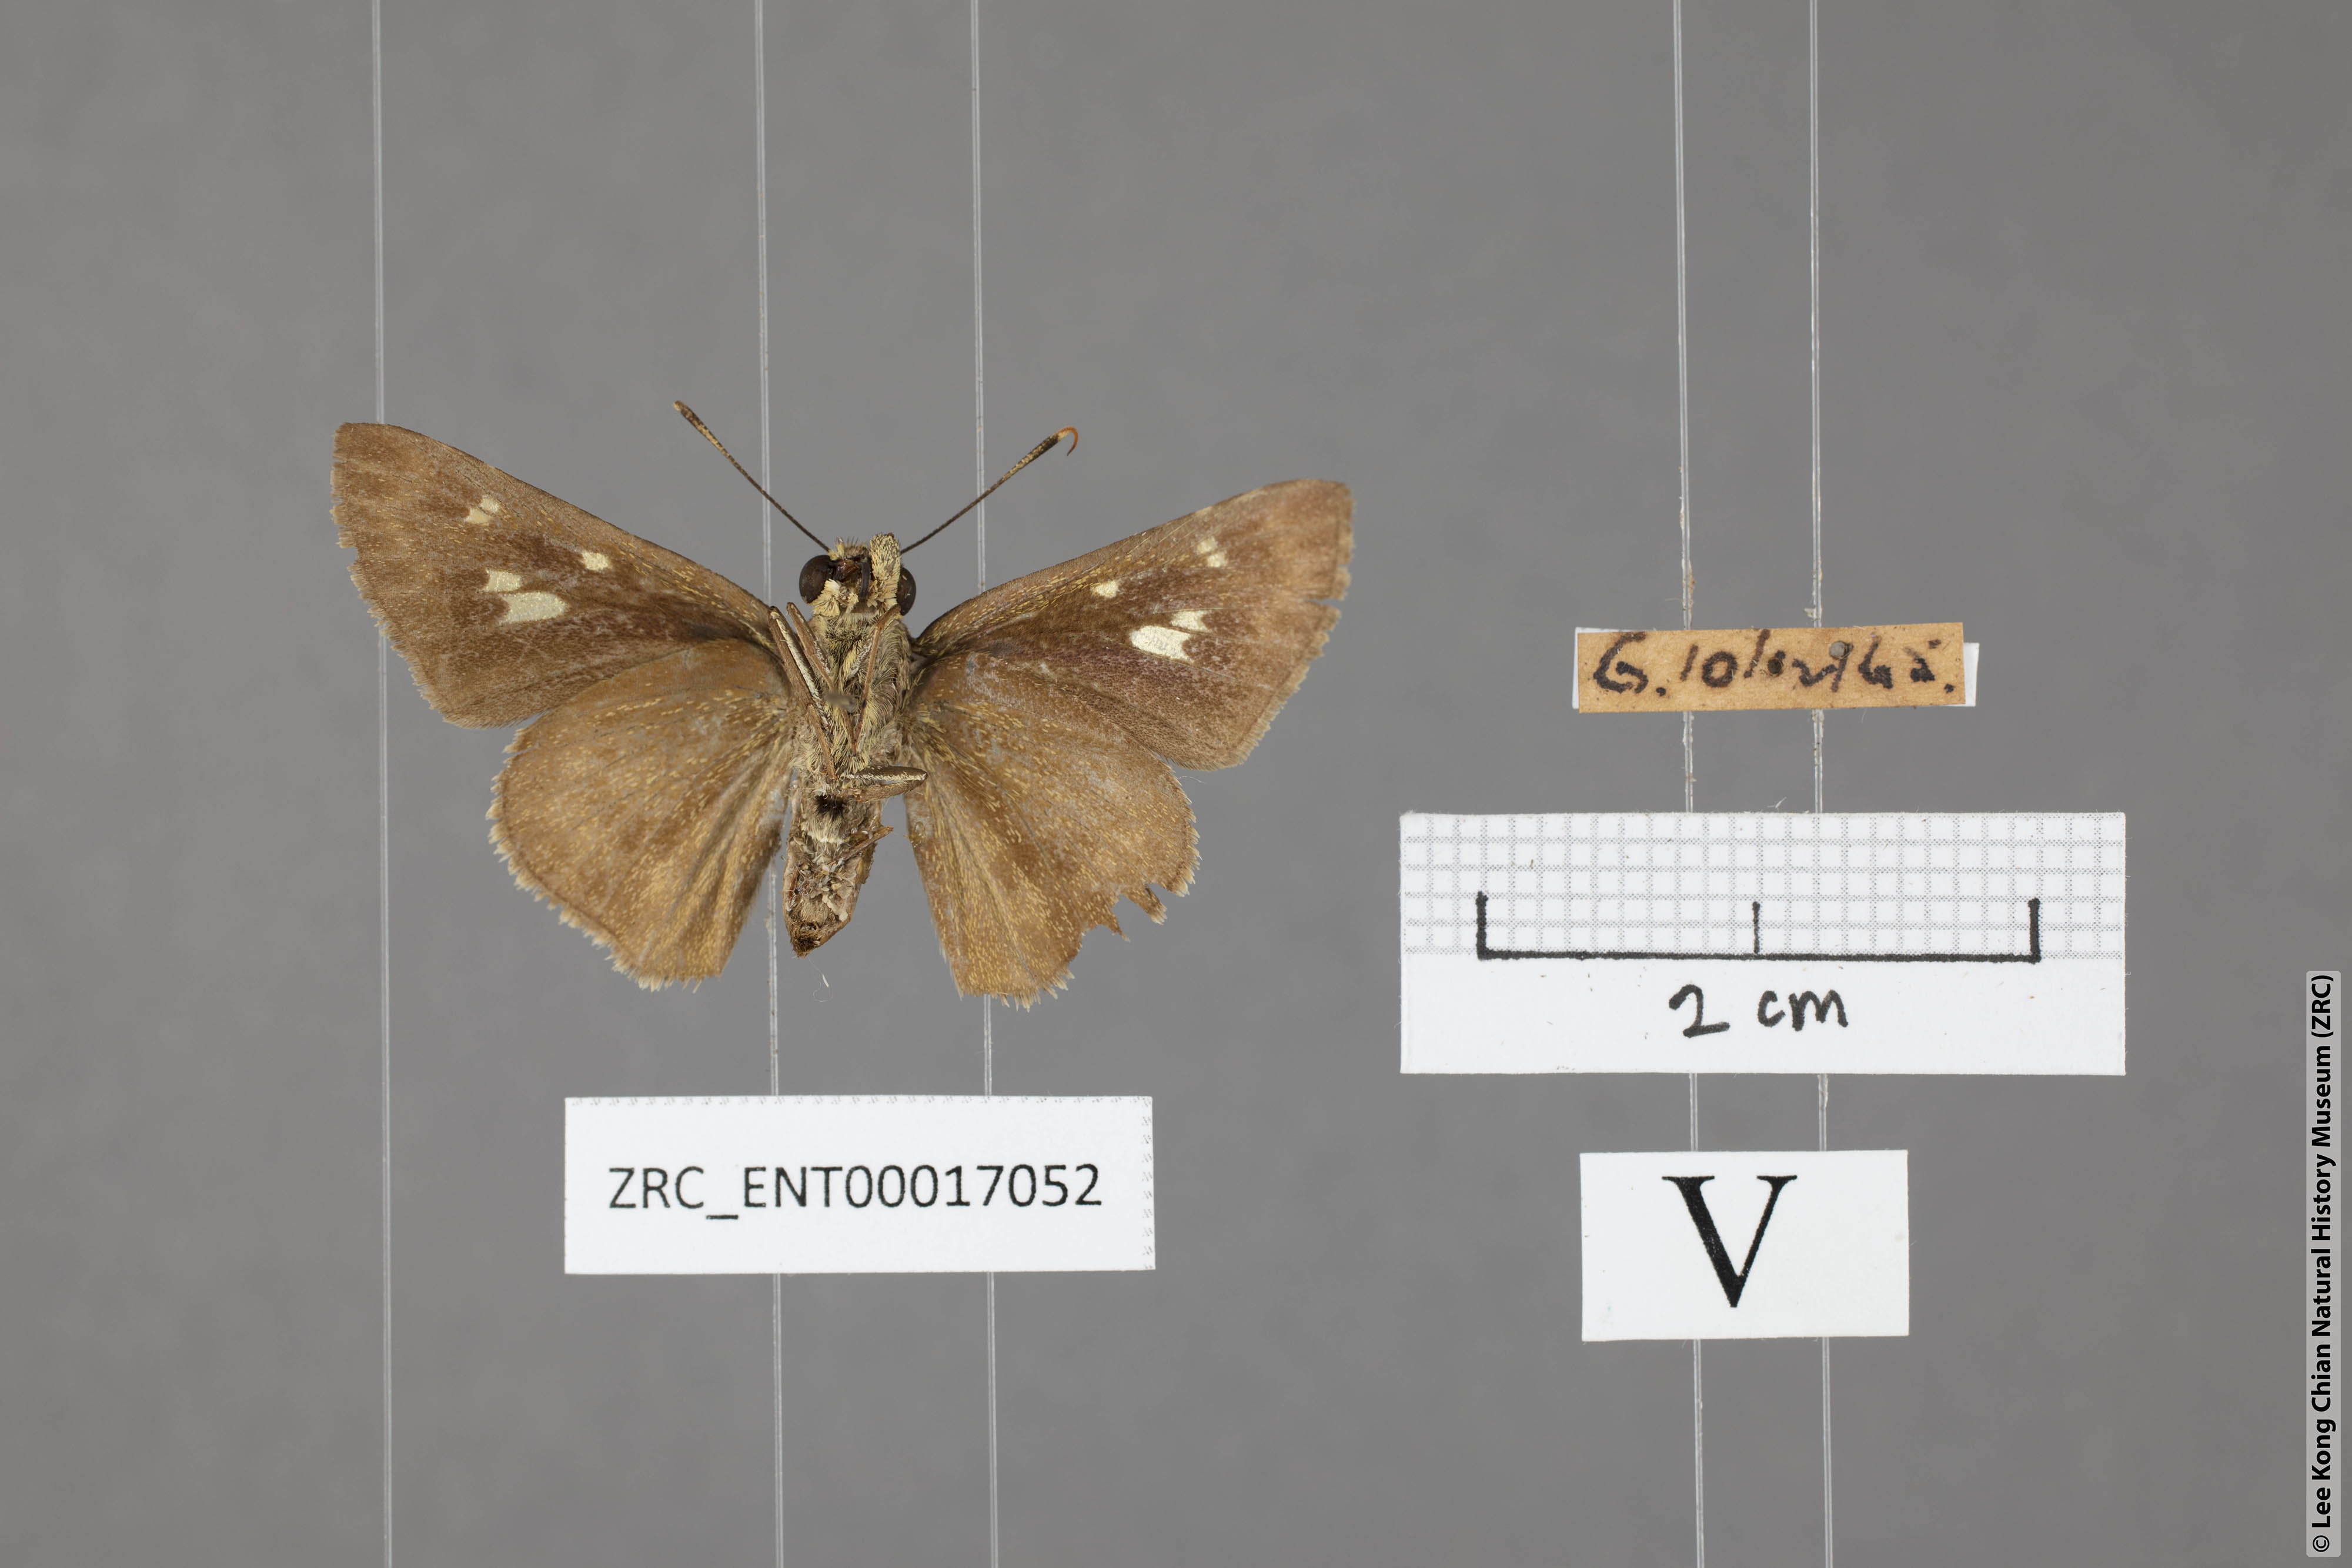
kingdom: Animalia
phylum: Arthropoda
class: Insecta
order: Lepidoptera
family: Hesperiidae
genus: Halpe
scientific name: Halpe sikkima
